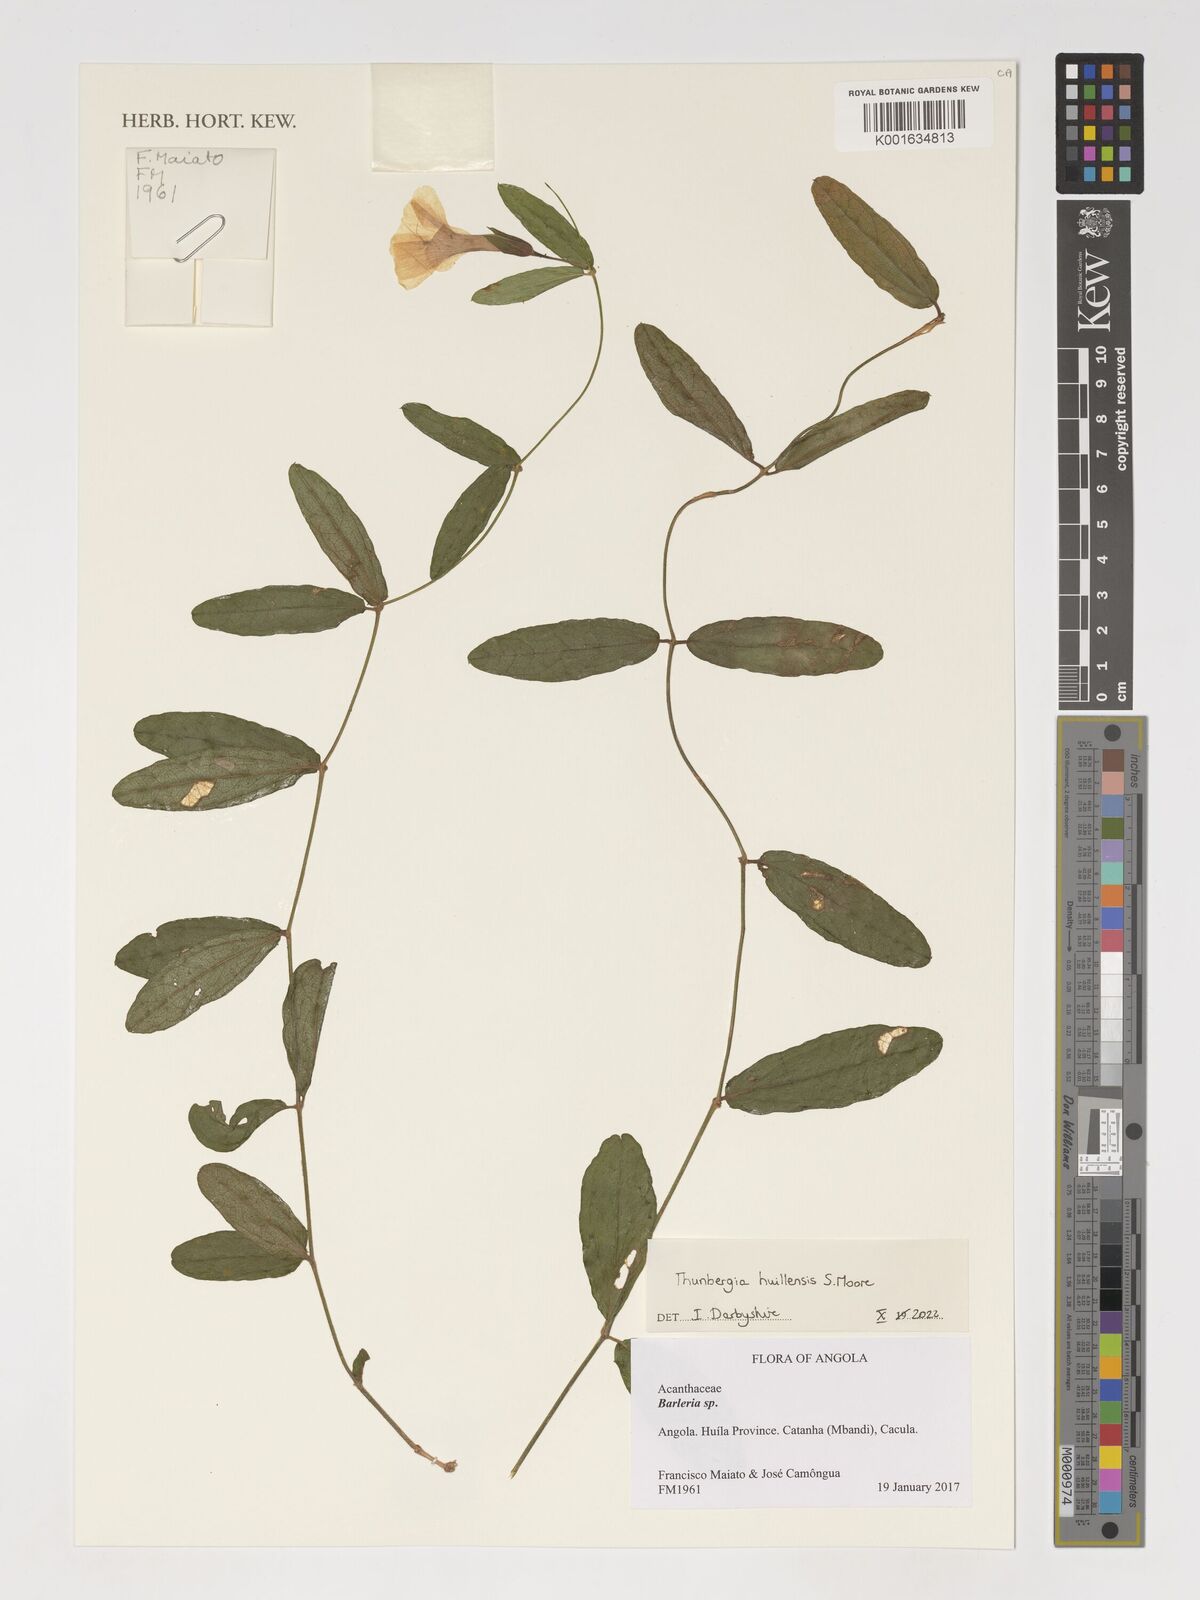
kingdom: Plantae
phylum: Tracheophyta
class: Magnoliopsida
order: Lamiales
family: Acanthaceae
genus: Thunbergia
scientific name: Thunbergia huillensis
